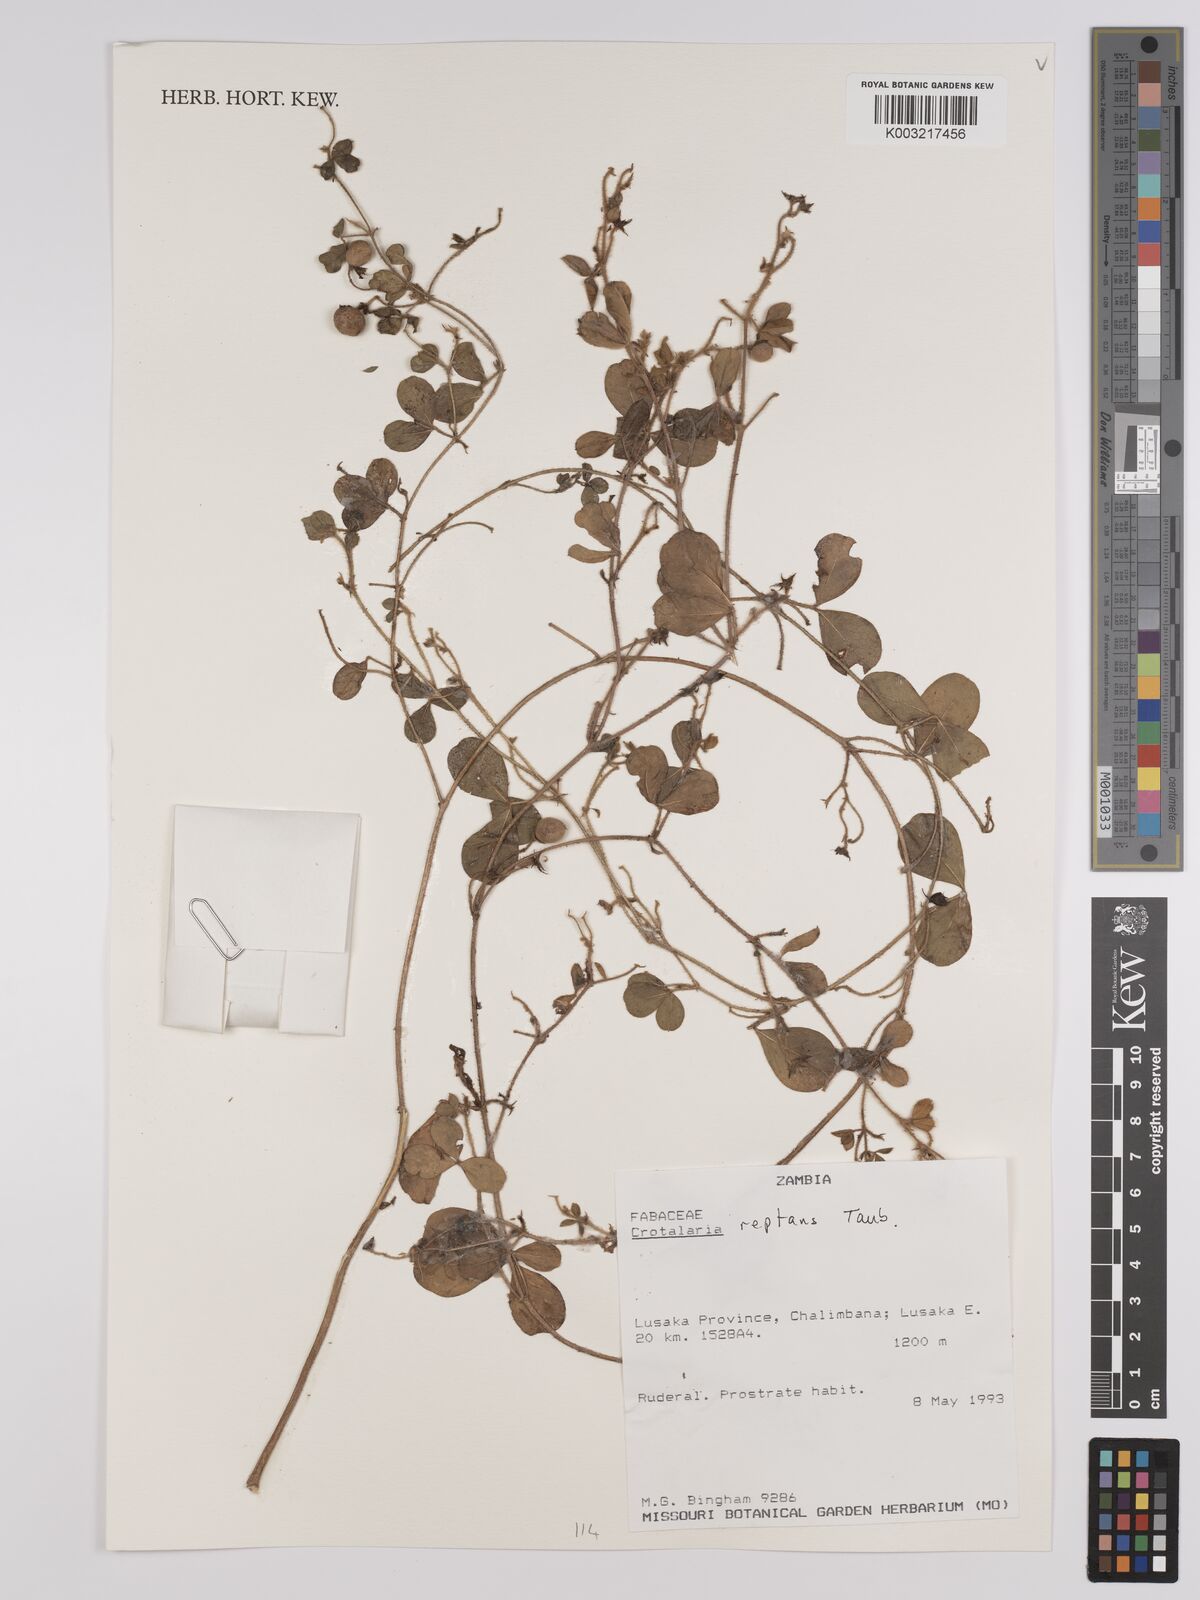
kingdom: Plantae
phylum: Tracheophyta
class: Magnoliopsida
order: Fabales
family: Fabaceae
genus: Crotalaria
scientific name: Crotalaria reptans
